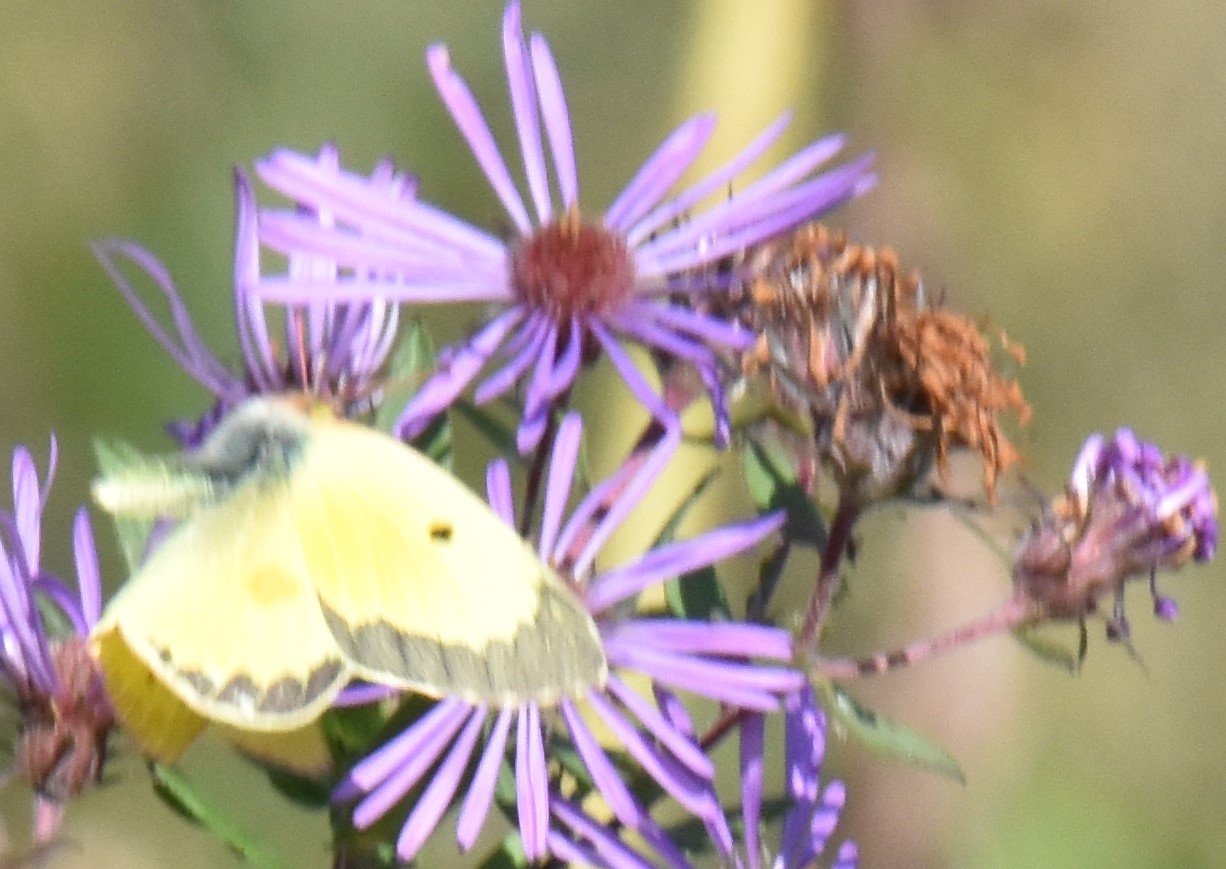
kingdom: Animalia
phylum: Arthropoda
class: Insecta
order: Lepidoptera
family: Pieridae
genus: Colias
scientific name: Colias philodice
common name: Clouded Sulphur
